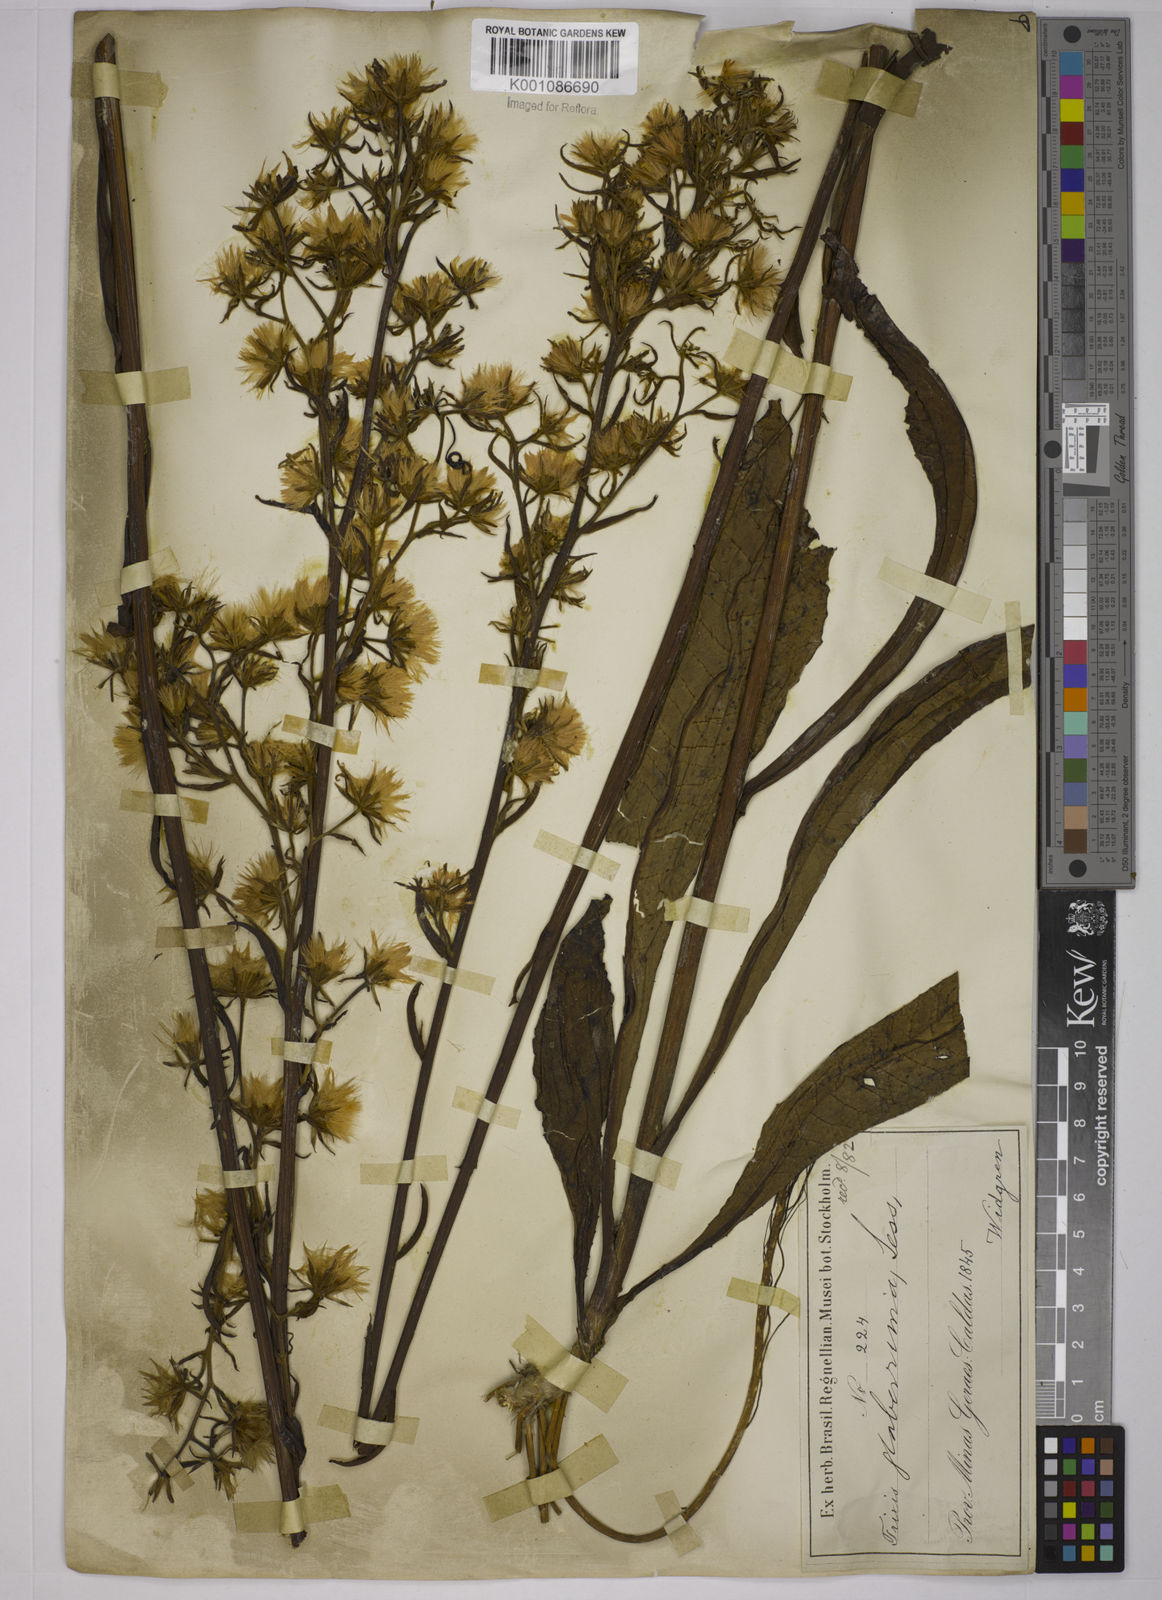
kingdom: Plantae
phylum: Tracheophyta
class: Magnoliopsida
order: Asterales
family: Asteraceae
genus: Trixis
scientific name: Trixis nobilis
